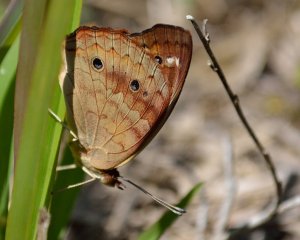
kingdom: Animalia
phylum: Arthropoda
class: Insecta
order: Lepidoptera
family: Nymphalidae
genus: Junonia
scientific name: Junonia coenia
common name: Common Buckeye
